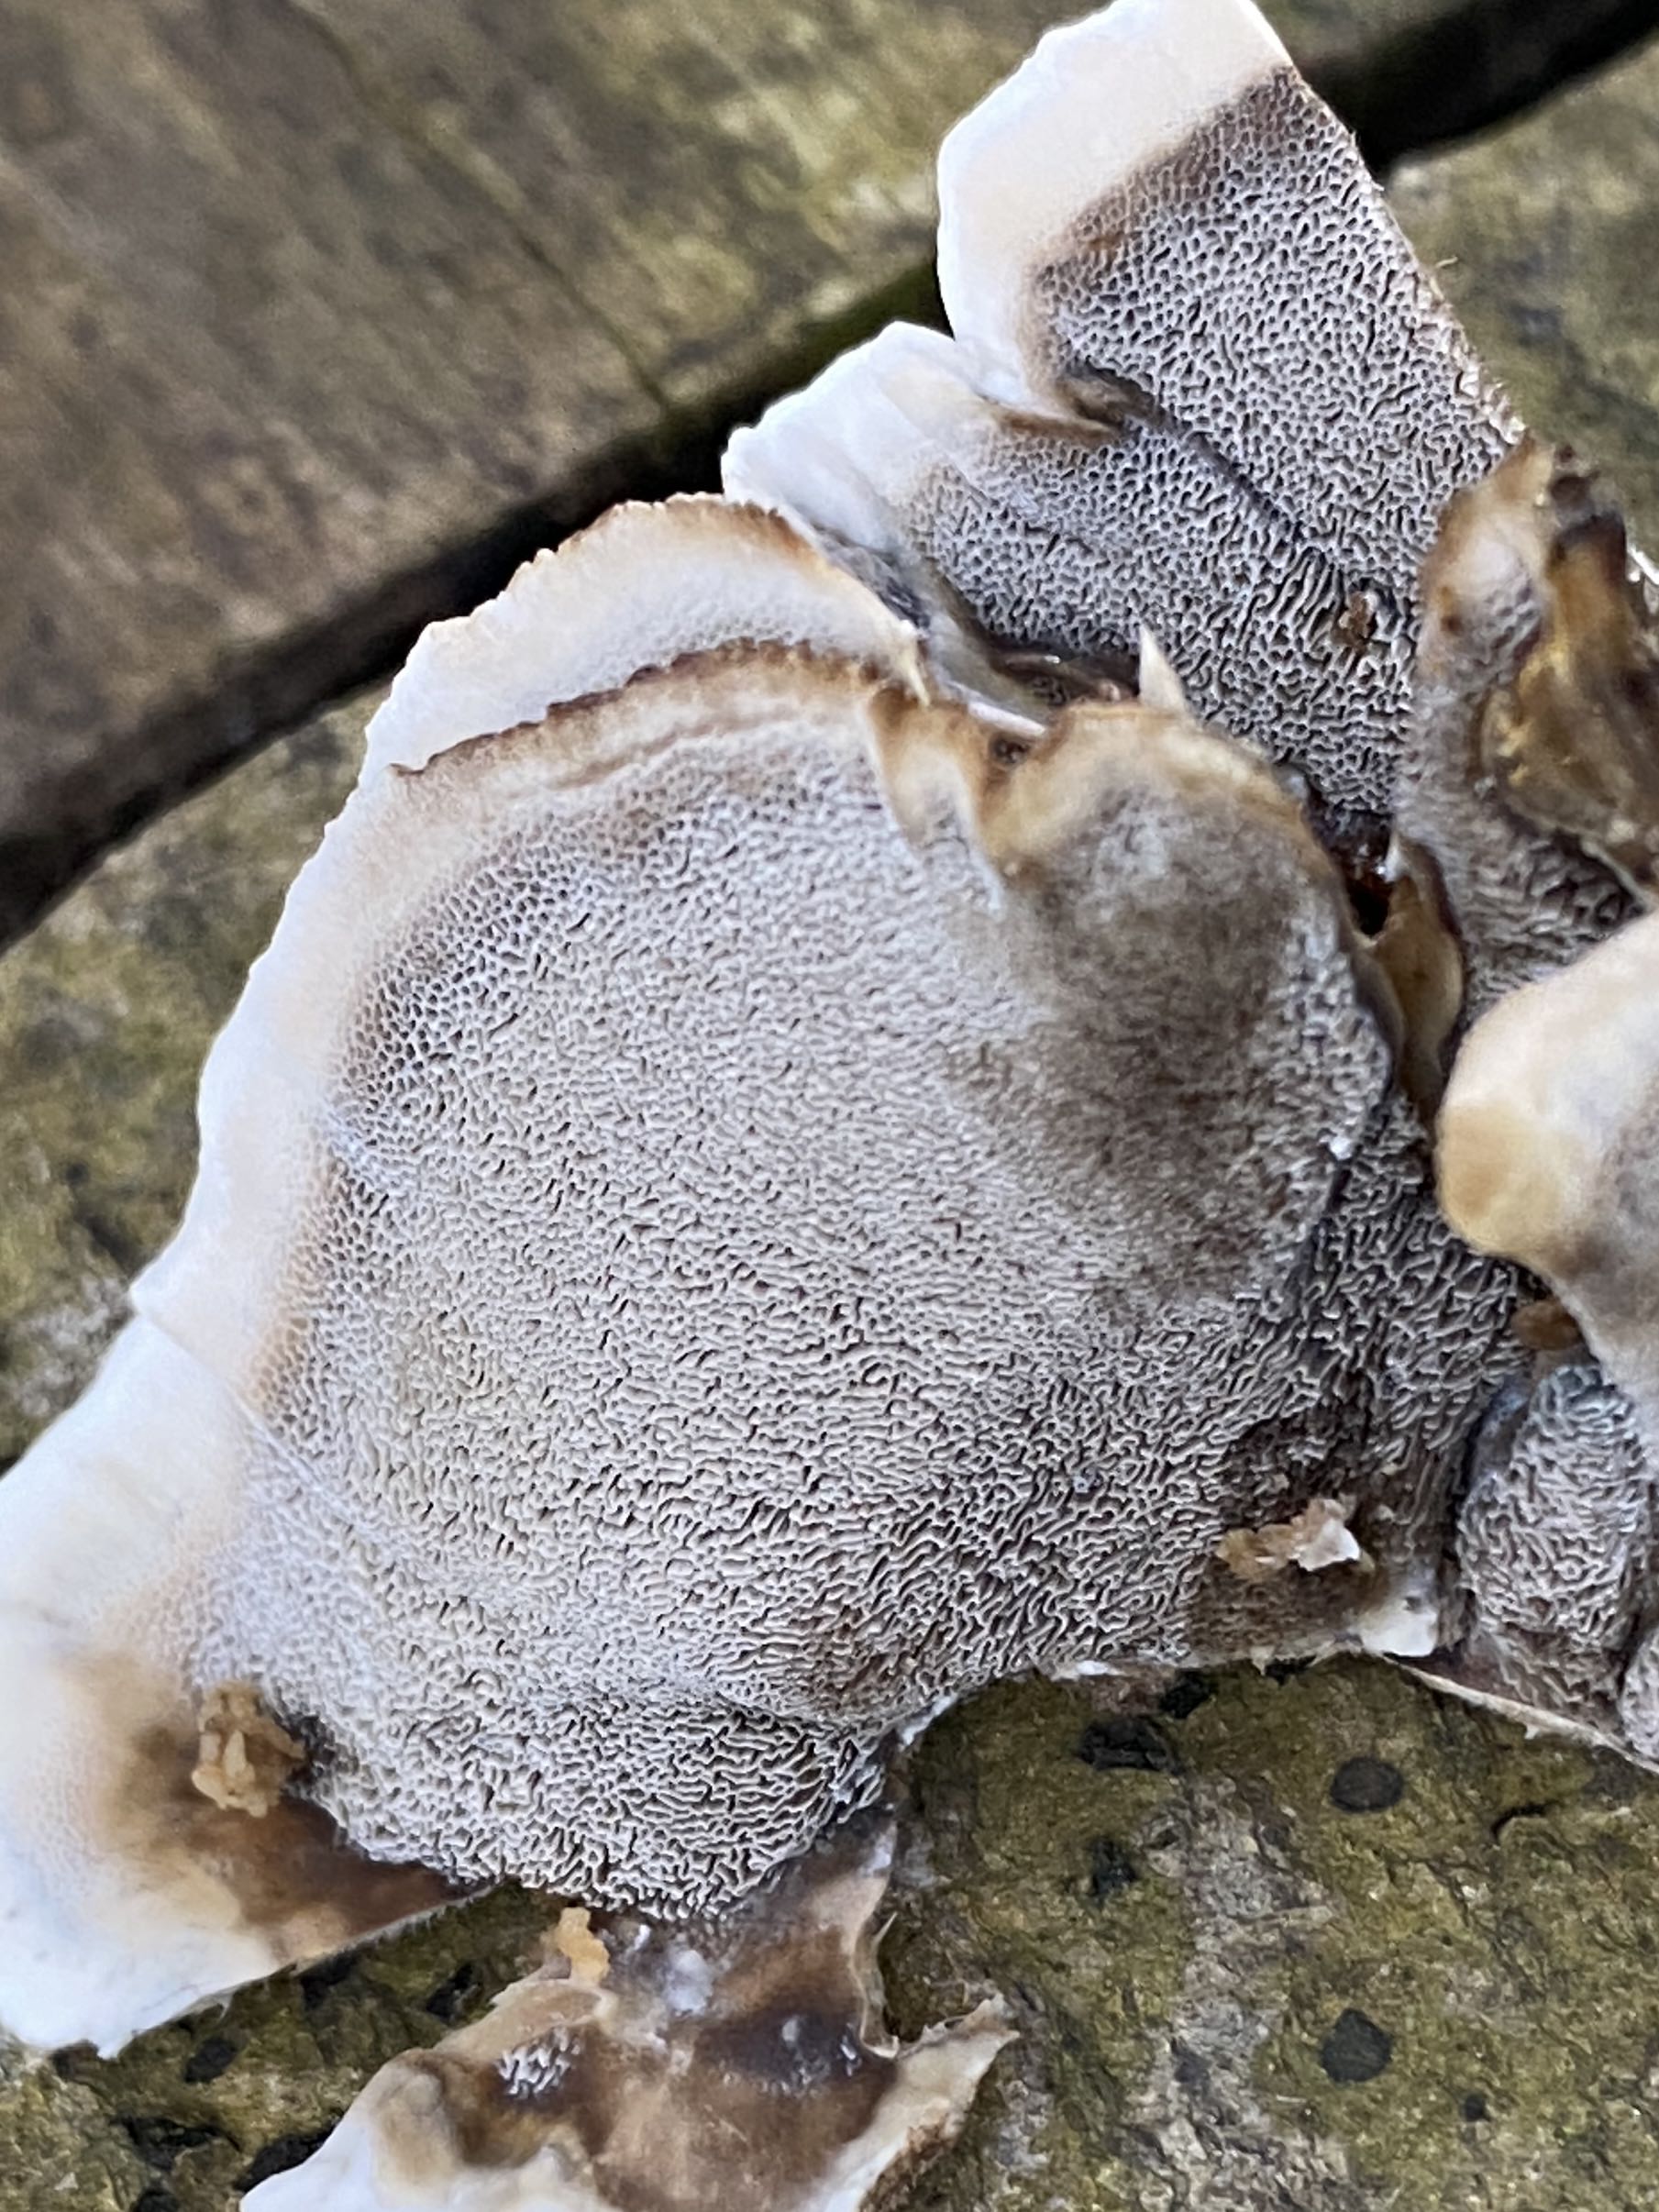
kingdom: Fungi
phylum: Basidiomycota
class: Agaricomycetes
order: Polyporales
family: Phanerochaetaceae
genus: Bjerkandera
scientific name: Bjerkandera adusta
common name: sveden sodporesvamp
